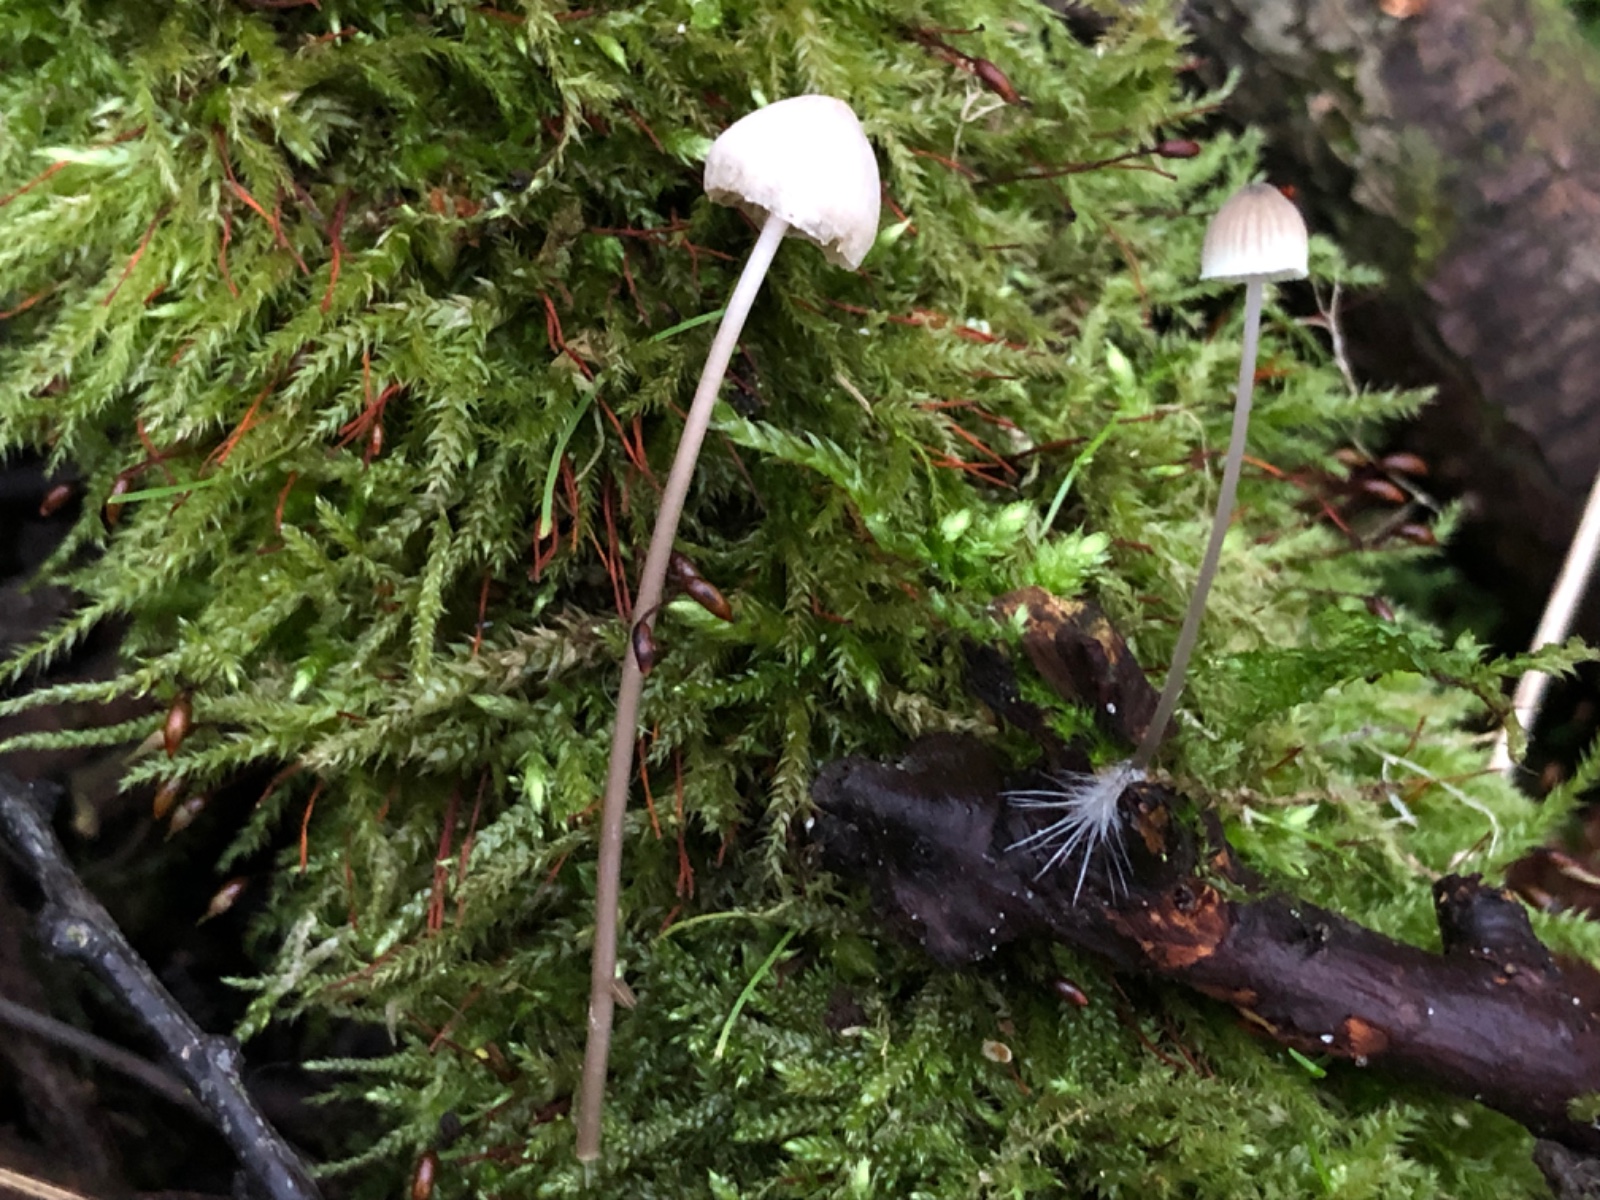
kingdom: Fungi
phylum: Basidiomycota
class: Agaricomycetes
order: Agaricales
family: Mycenaceae
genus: Mycena
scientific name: Mycena
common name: huesvamp
